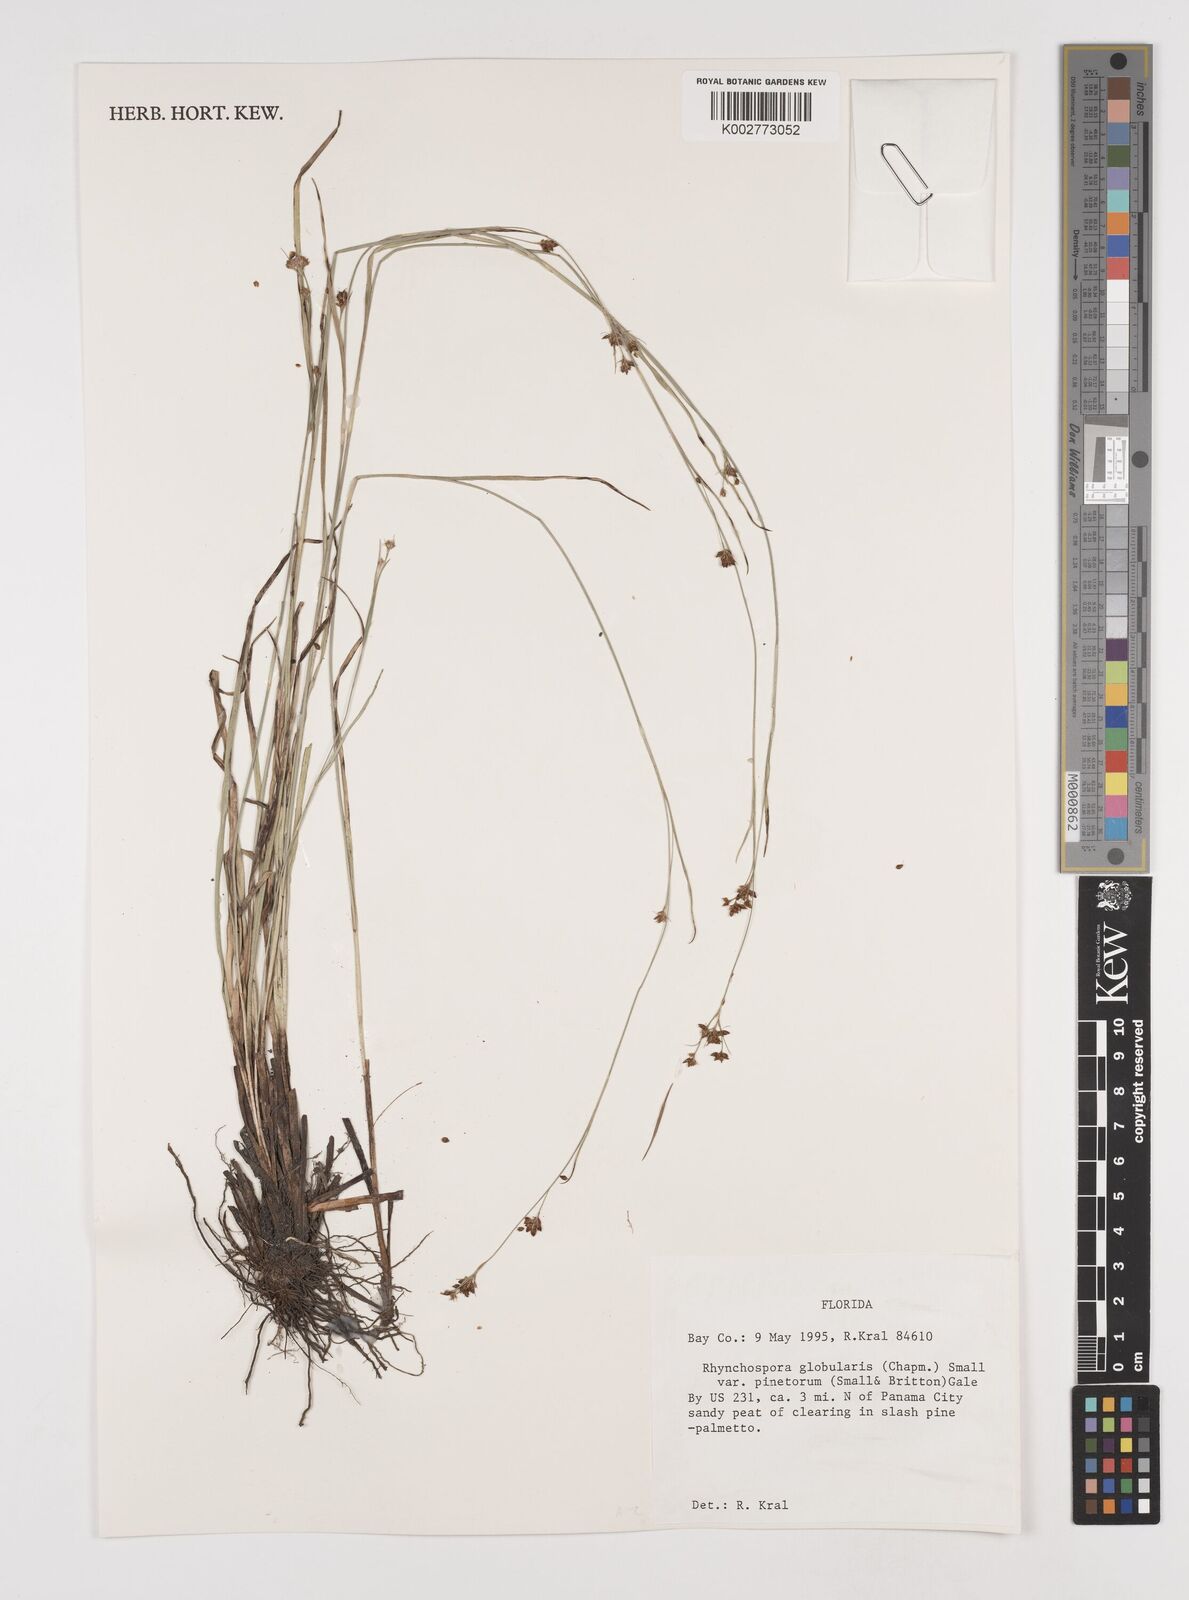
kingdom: Plantae
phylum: Tracheophyta
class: Liliopsida
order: Poales
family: Cyperaceae
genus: Rhynchospora
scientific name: Rhynchospora globularis
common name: Globe beaksedge
